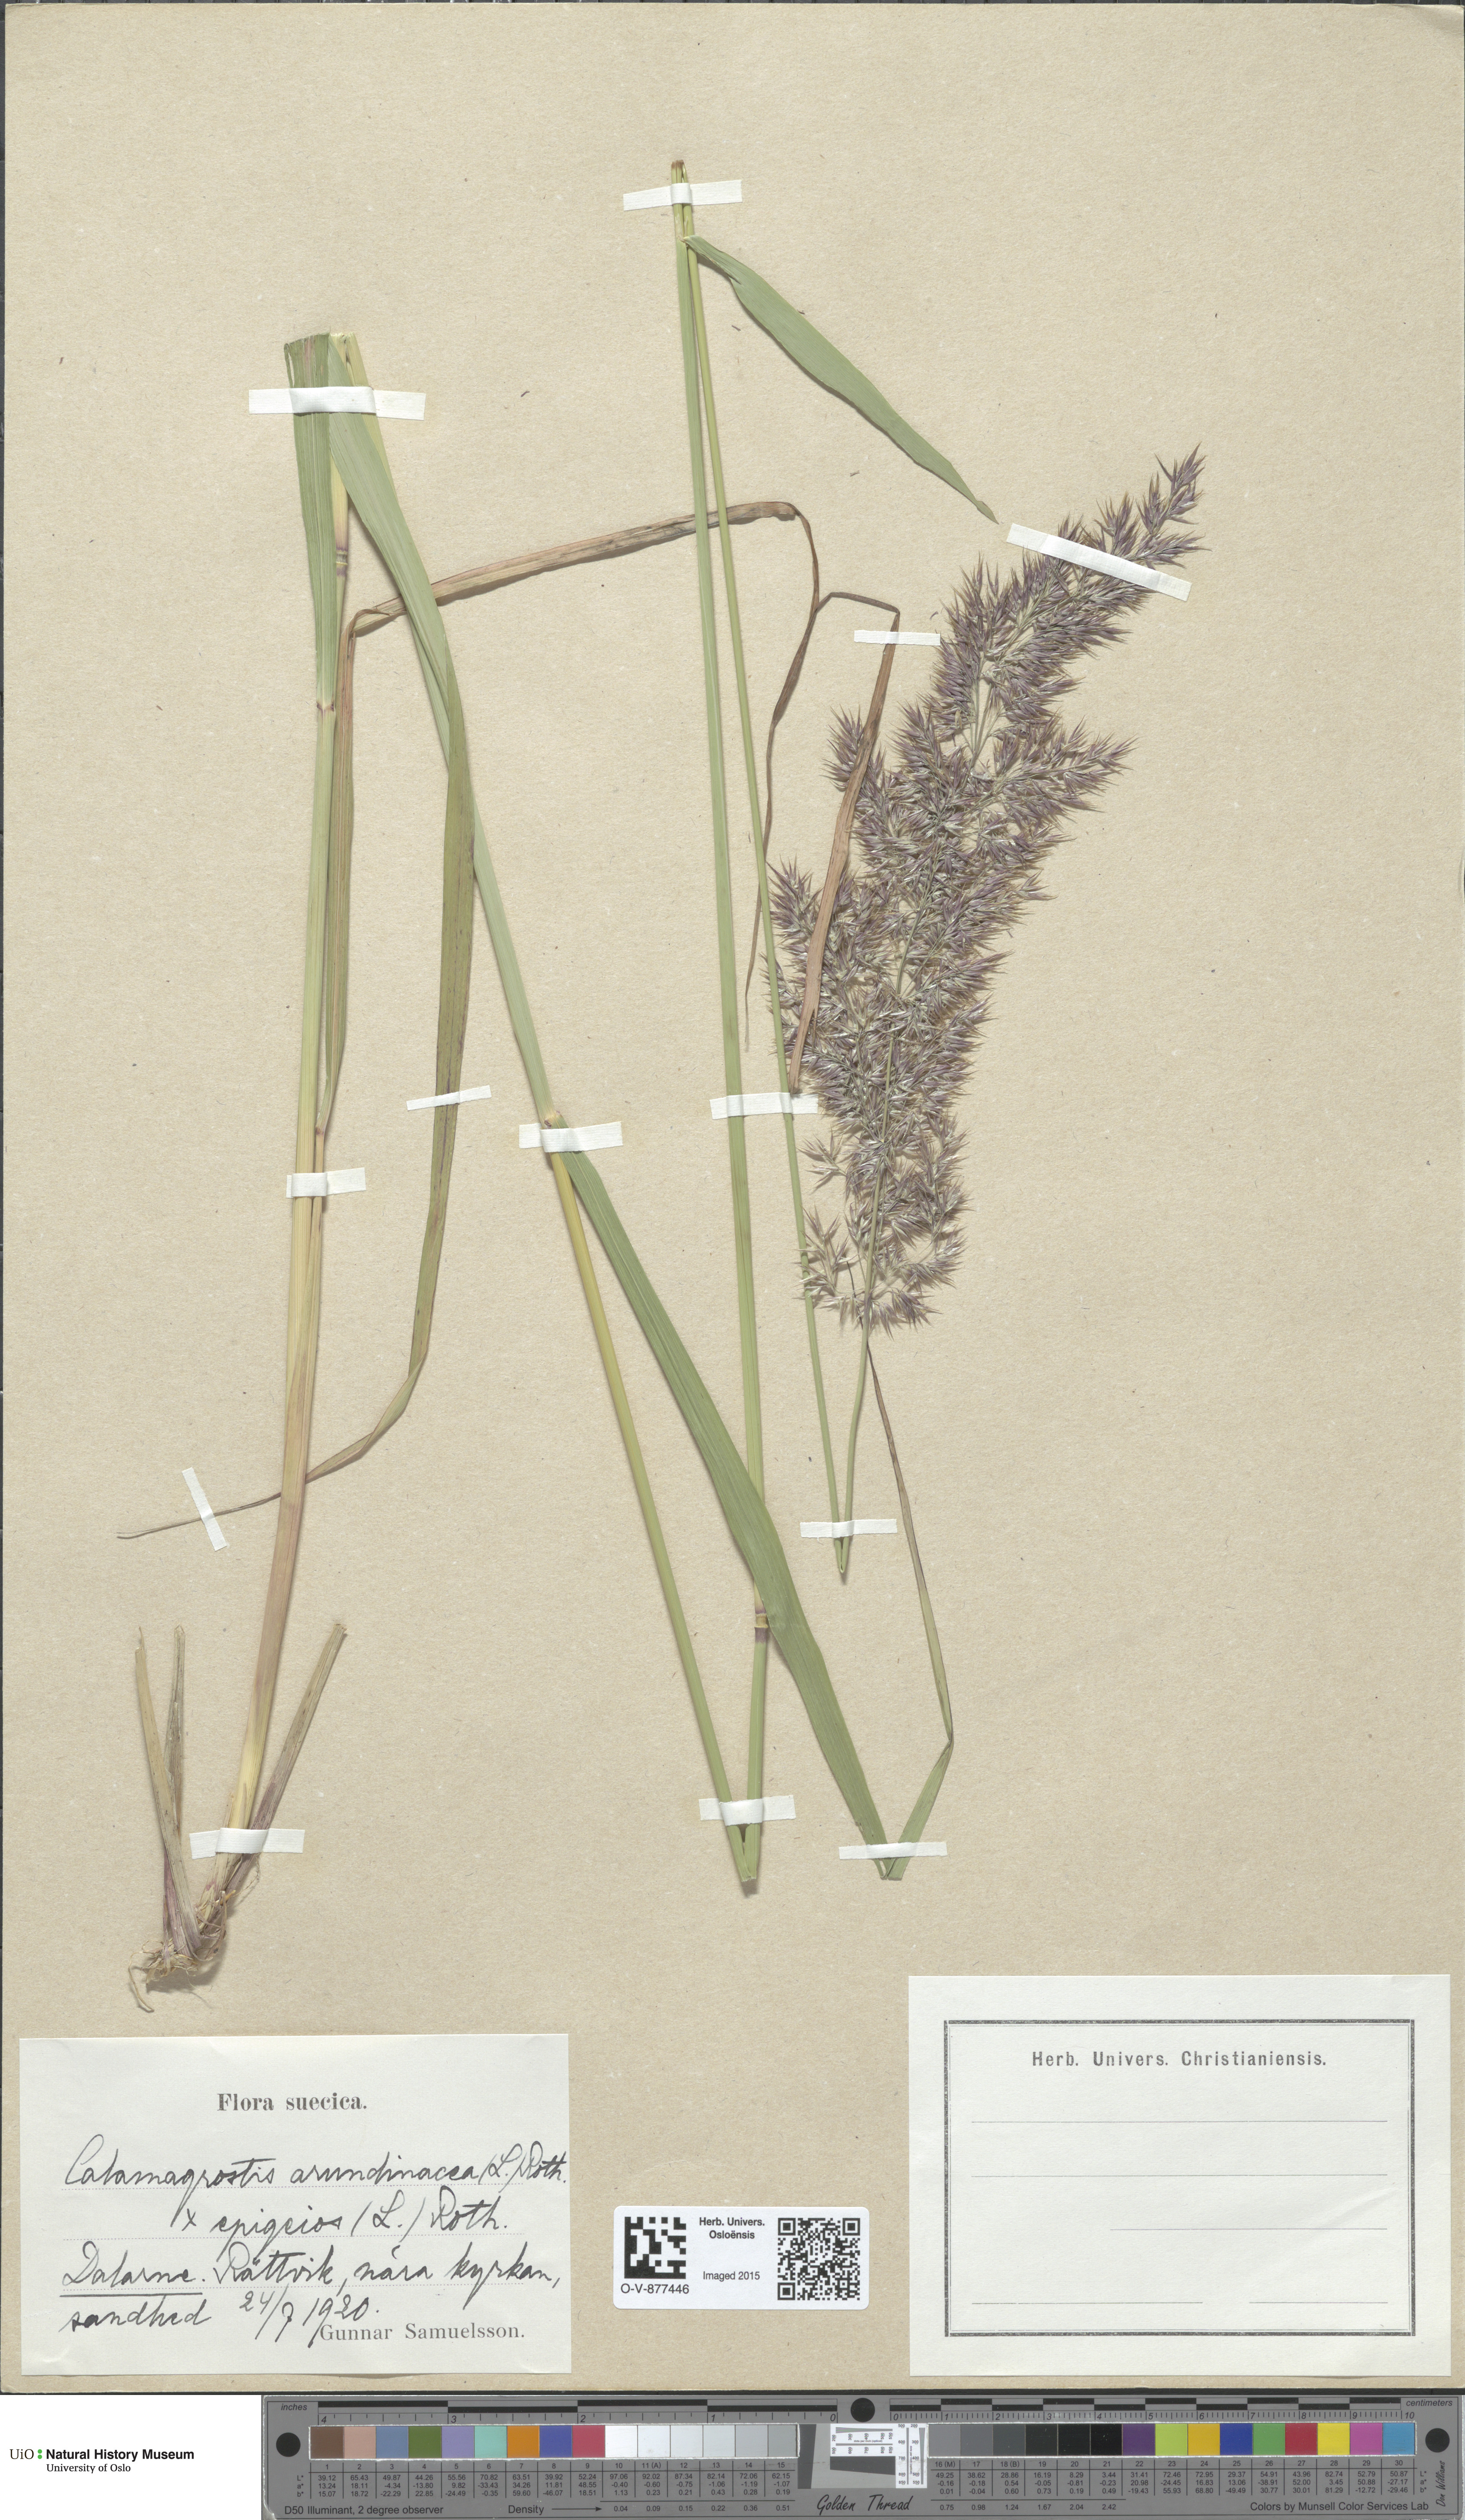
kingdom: Plantae
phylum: Tracheophyta
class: Liliopsida
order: Poales
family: Poaceae
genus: Calamagrostis
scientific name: Calamagrostis
